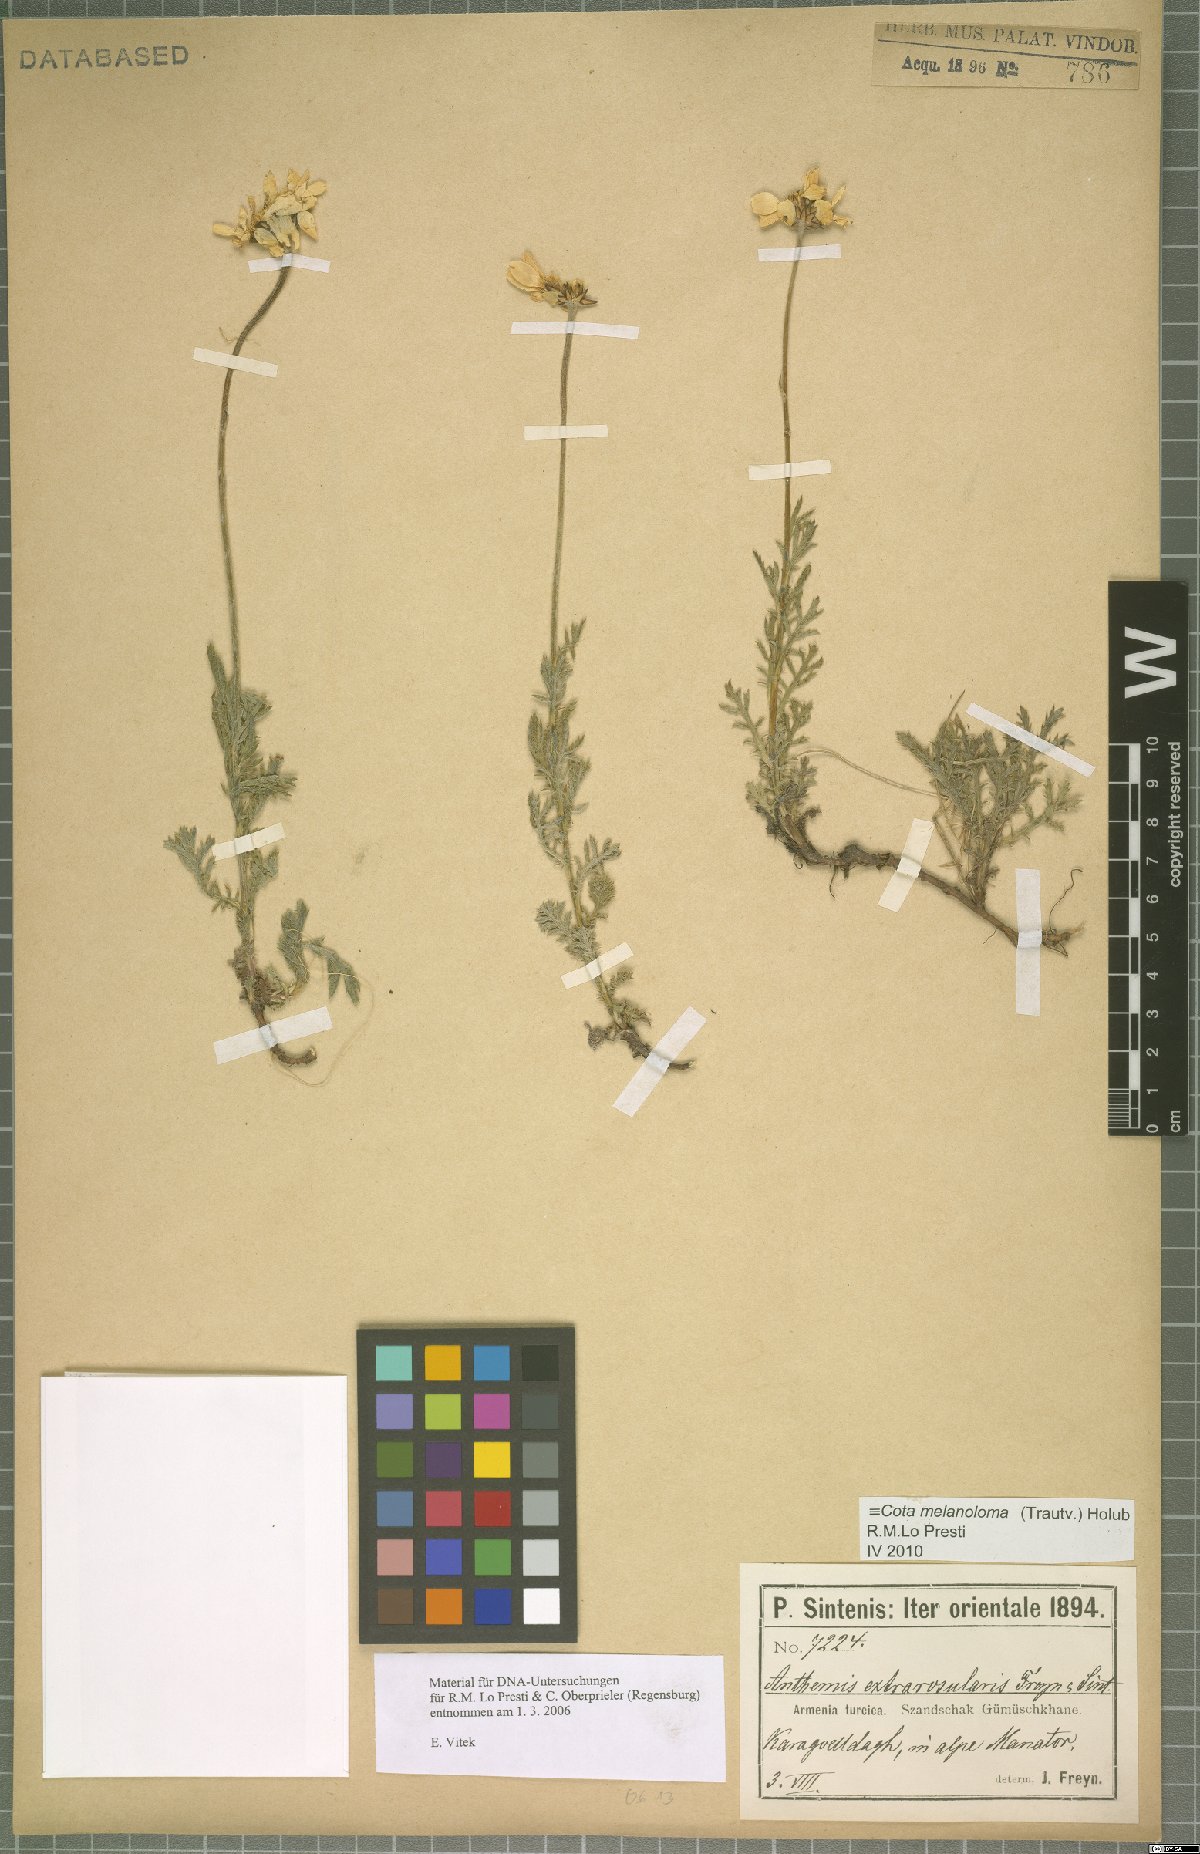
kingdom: Plantae
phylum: Tracheophyta
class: Magnoliopsida
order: Asterales
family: Asteraceae
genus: Cota
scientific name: Cota melanoloma
